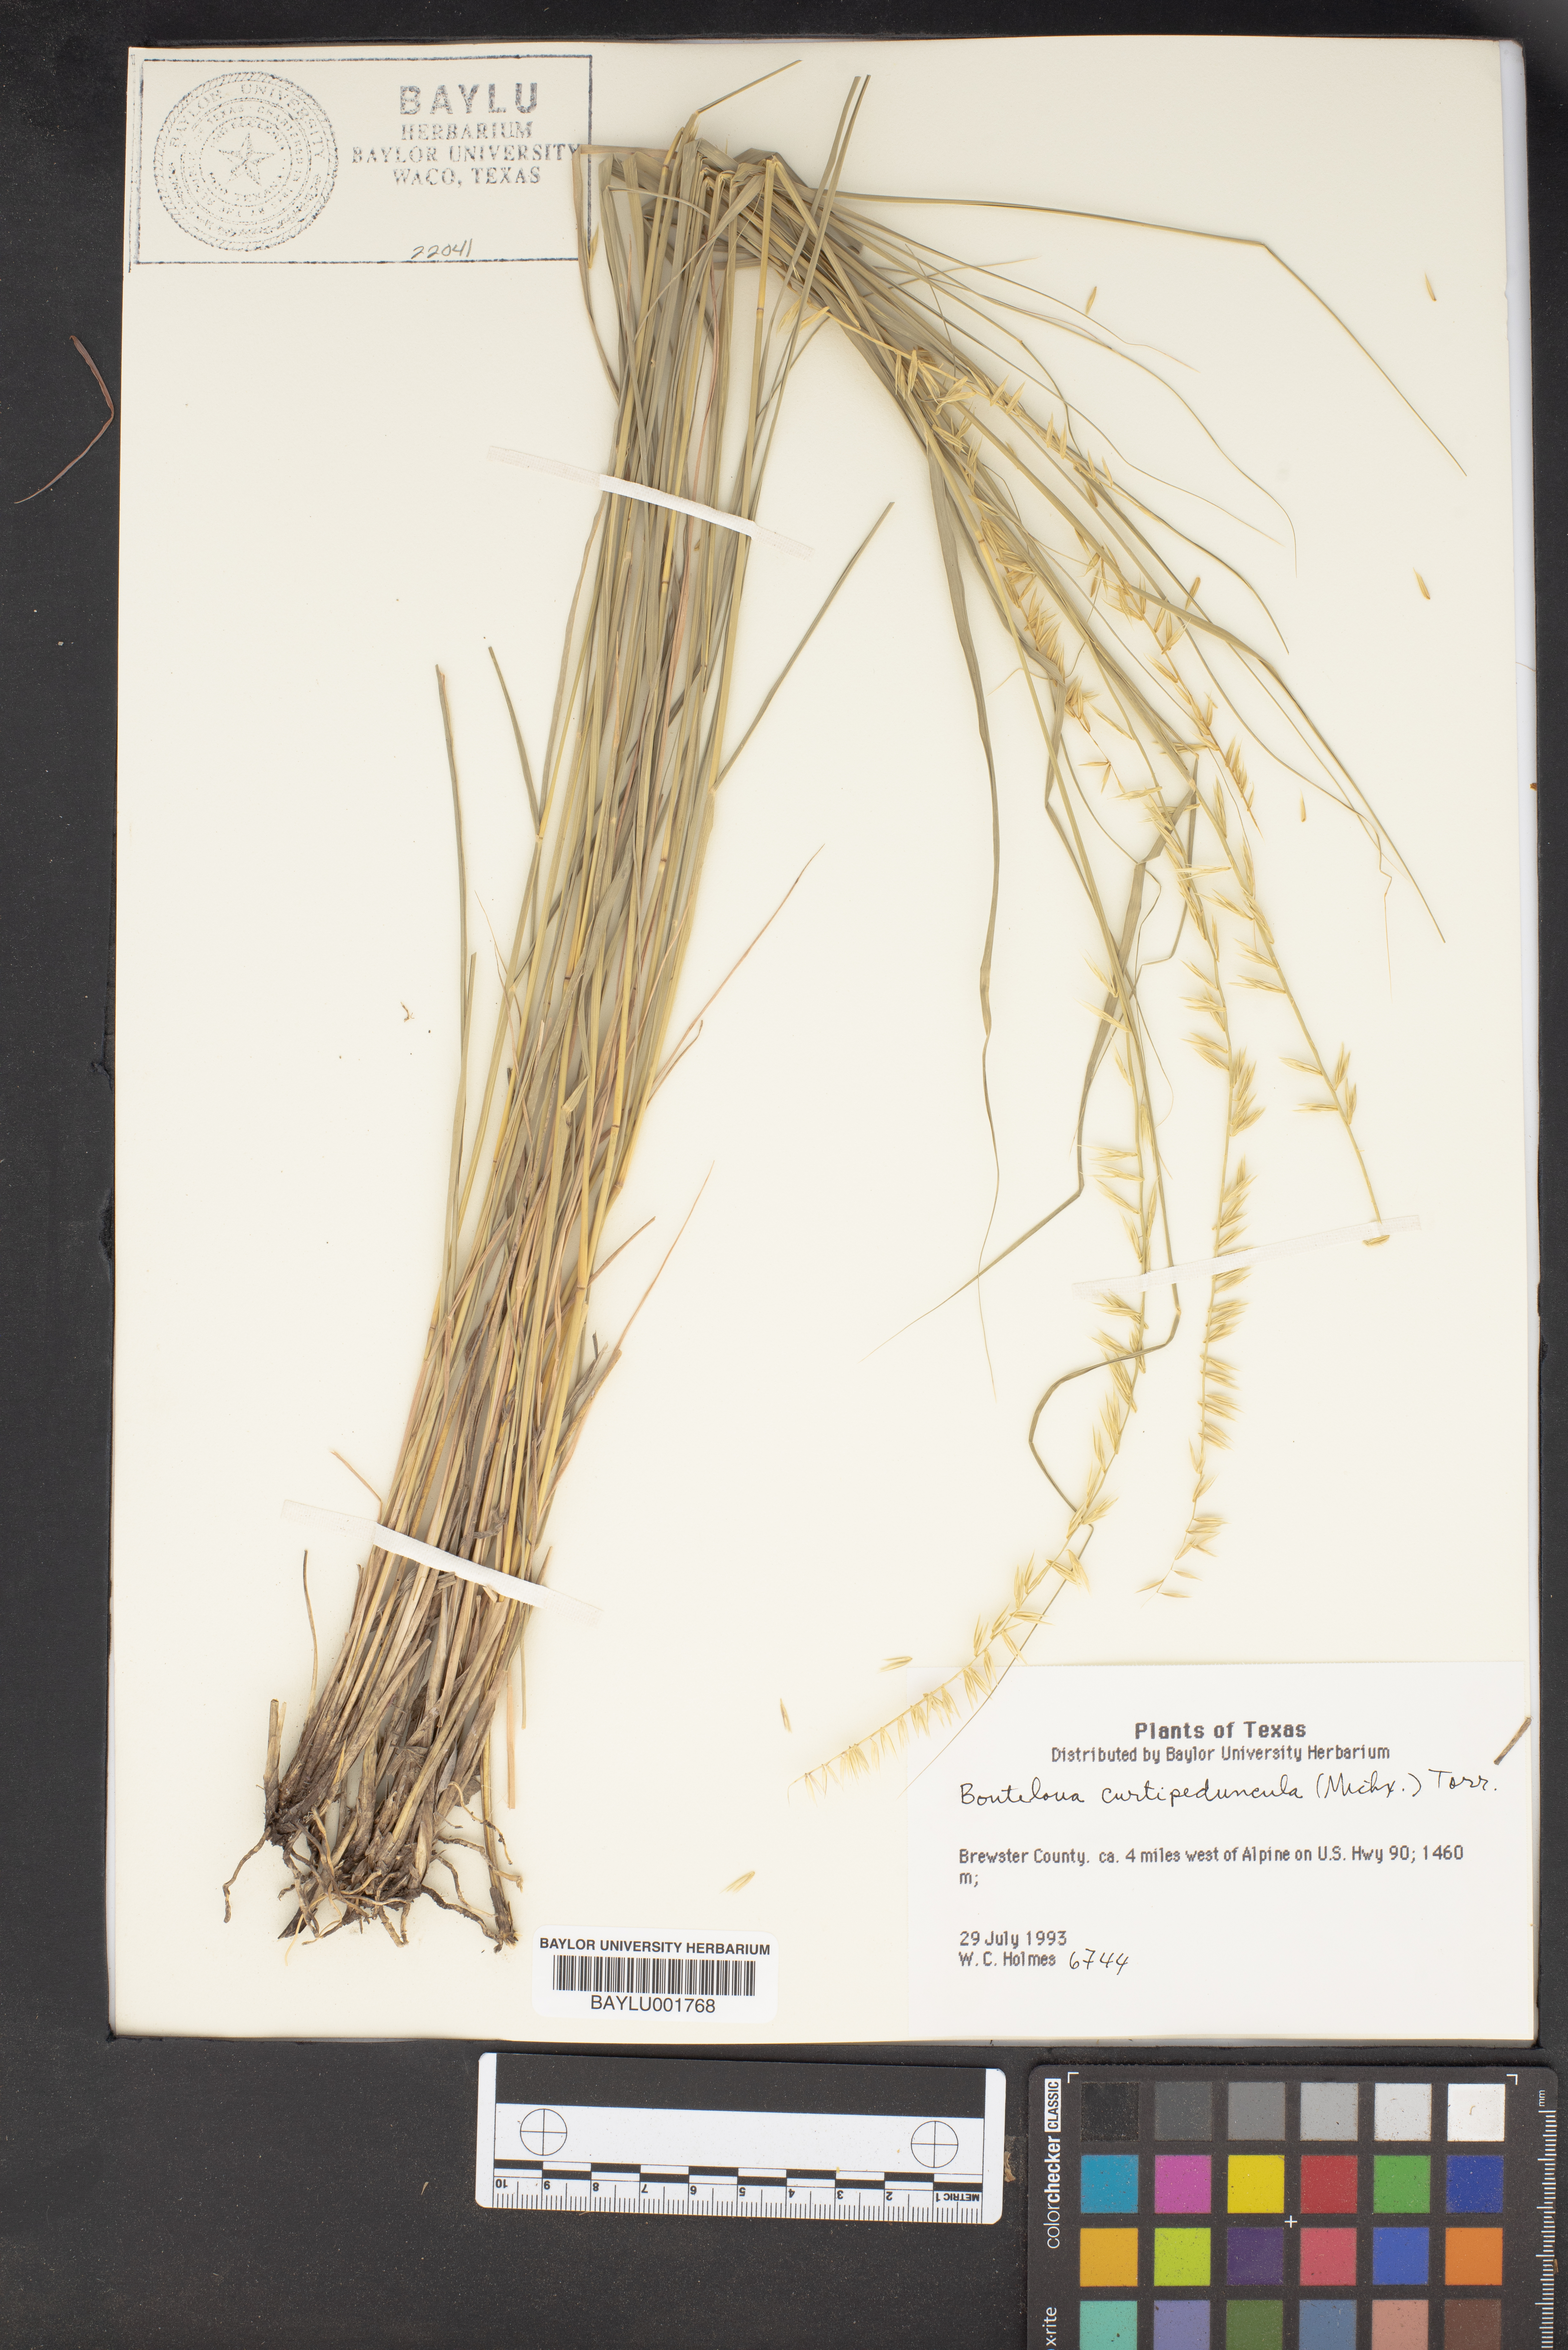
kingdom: Plantae
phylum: Tracheophyta
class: Liliopsida
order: Poales
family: Poaceae
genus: Bouteloua
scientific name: Bouteloua curtipendula
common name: Side-oats grama
